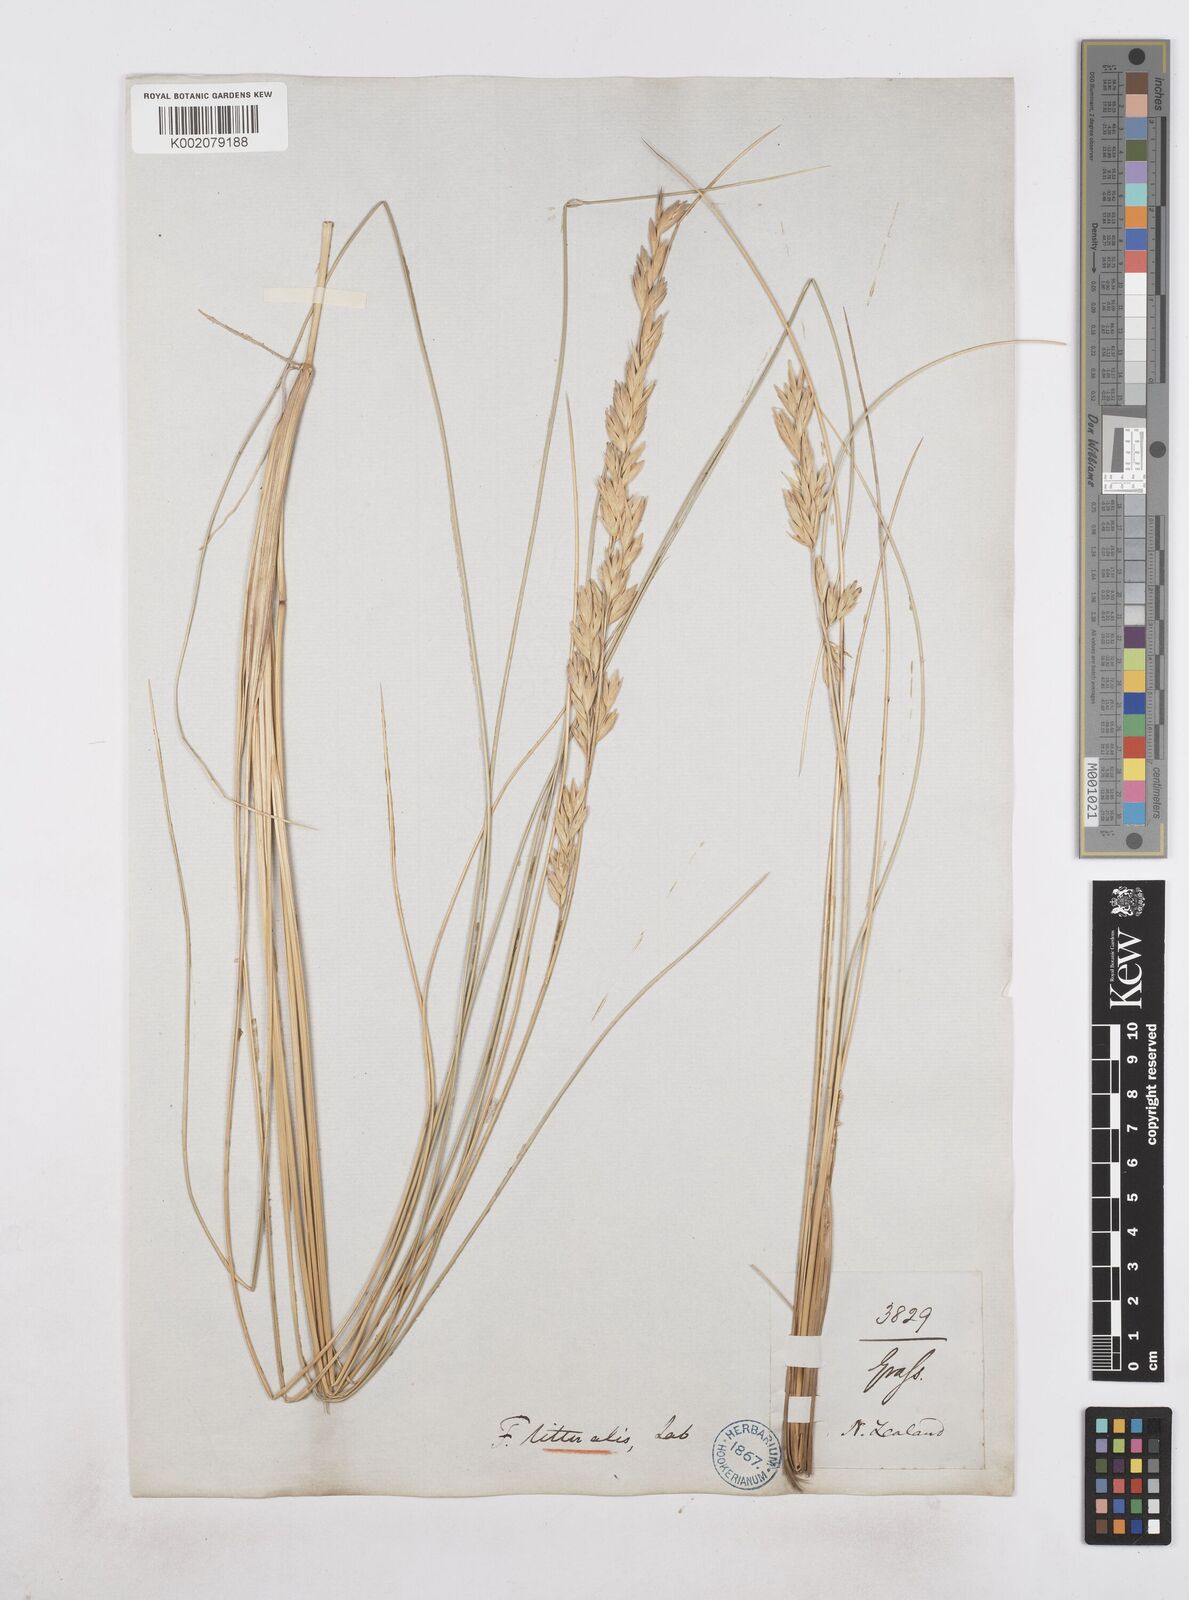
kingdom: Plantae
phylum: Tracheophyta
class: Liliopsida
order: Poales
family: Poaceae
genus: Poa
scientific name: Poa triodioides
